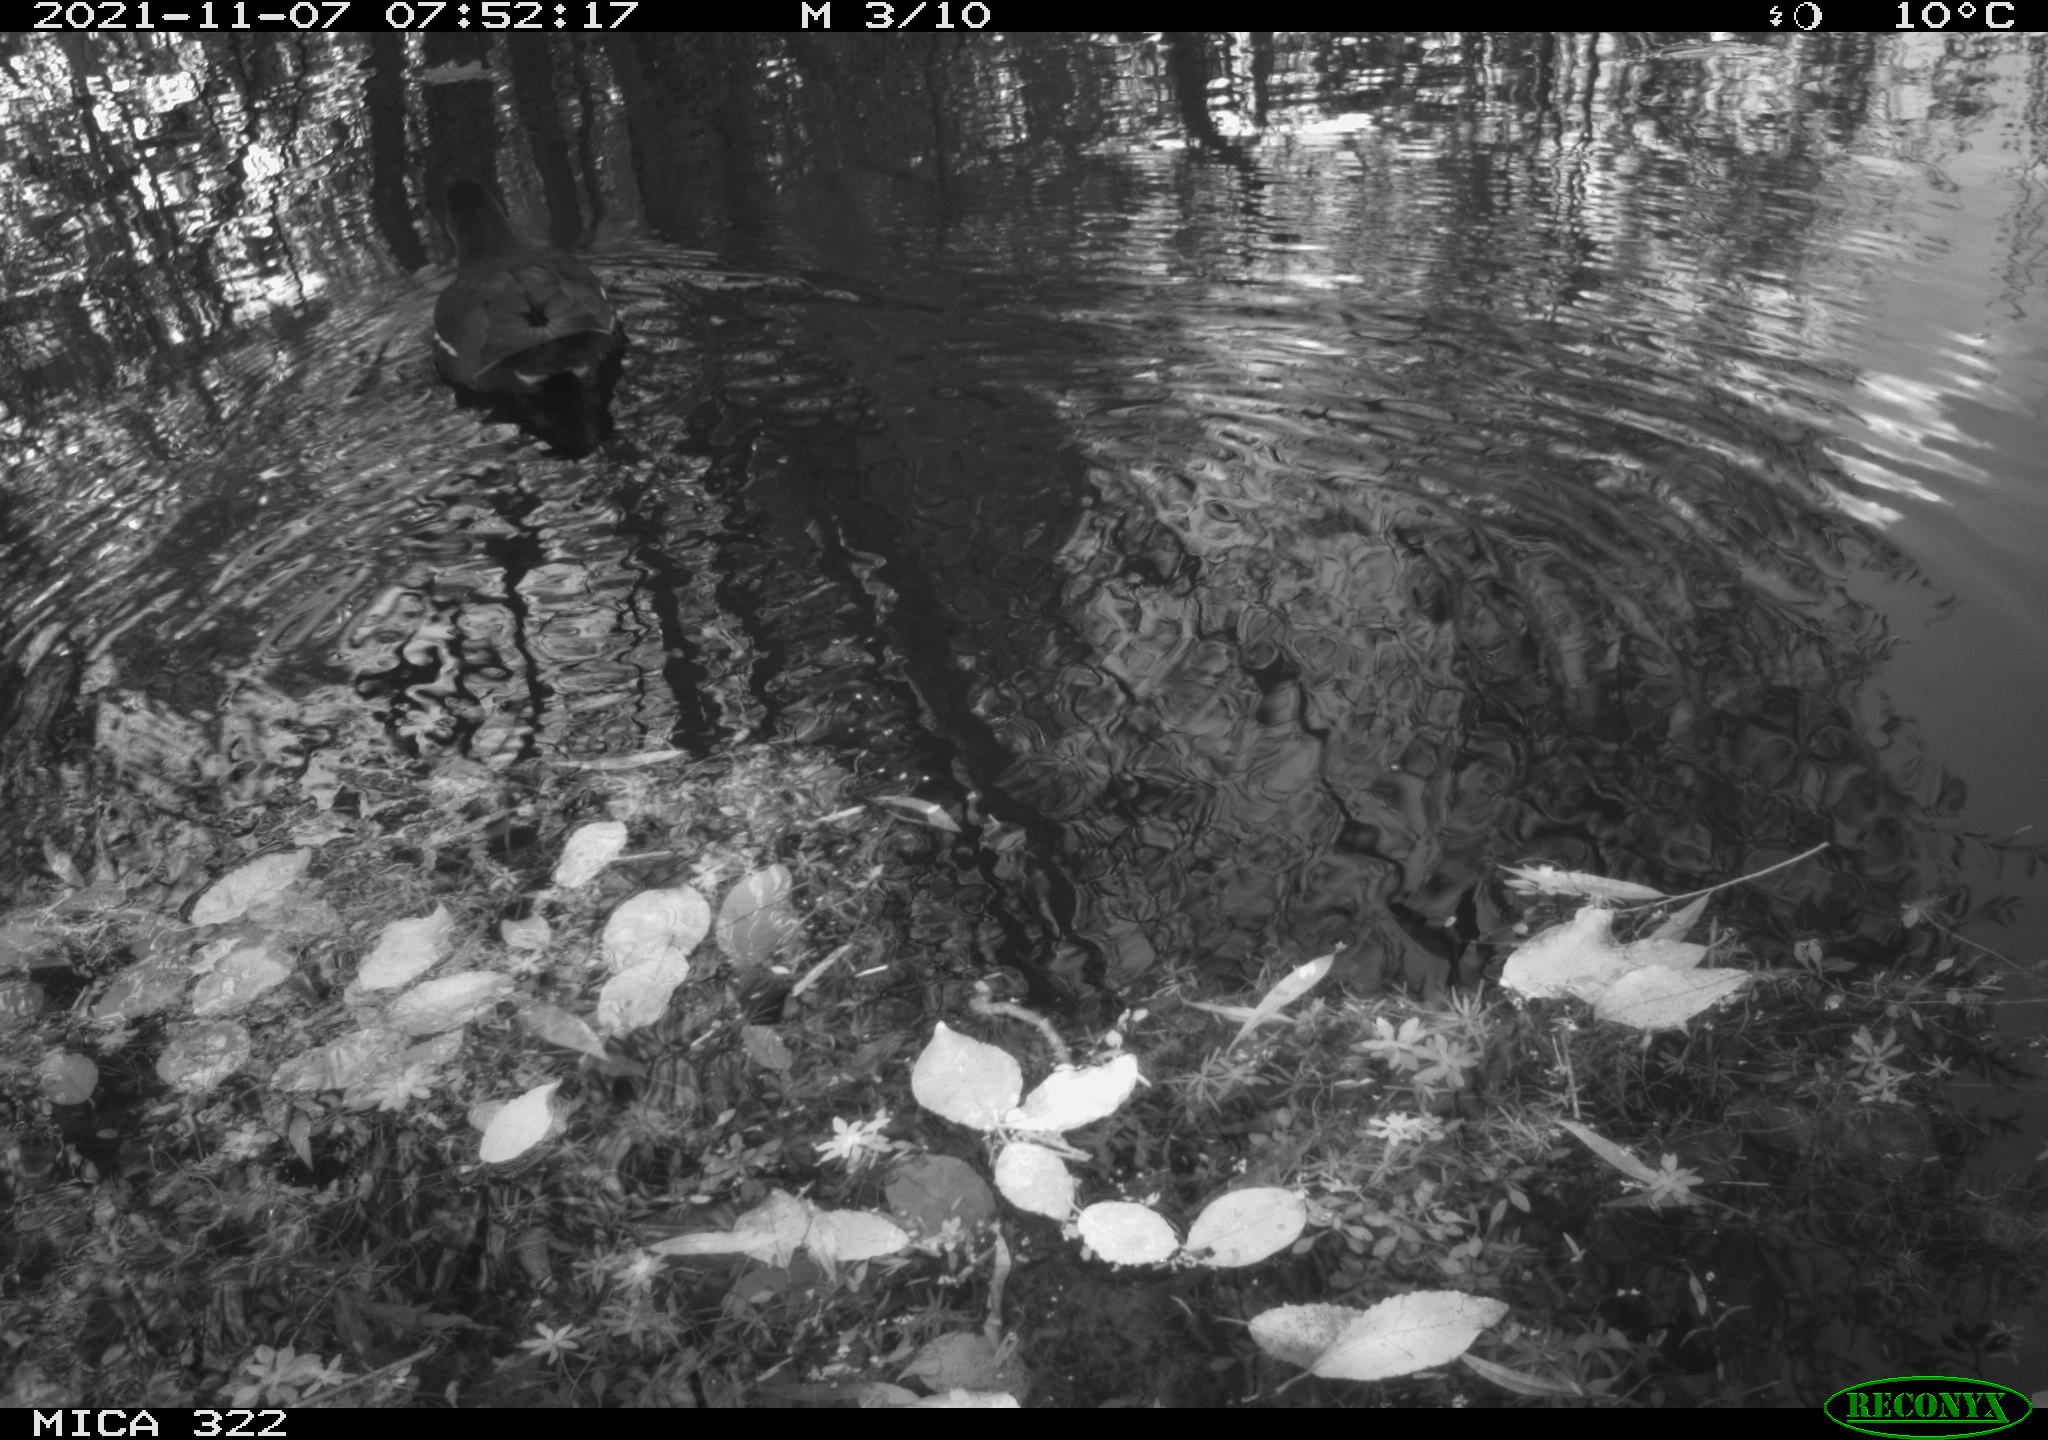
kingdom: Animalia
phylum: Chordata
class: Aves
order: Gruiformes
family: Rallidae
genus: Gallinula
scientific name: Gallinula chloropus
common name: Common moorhen
